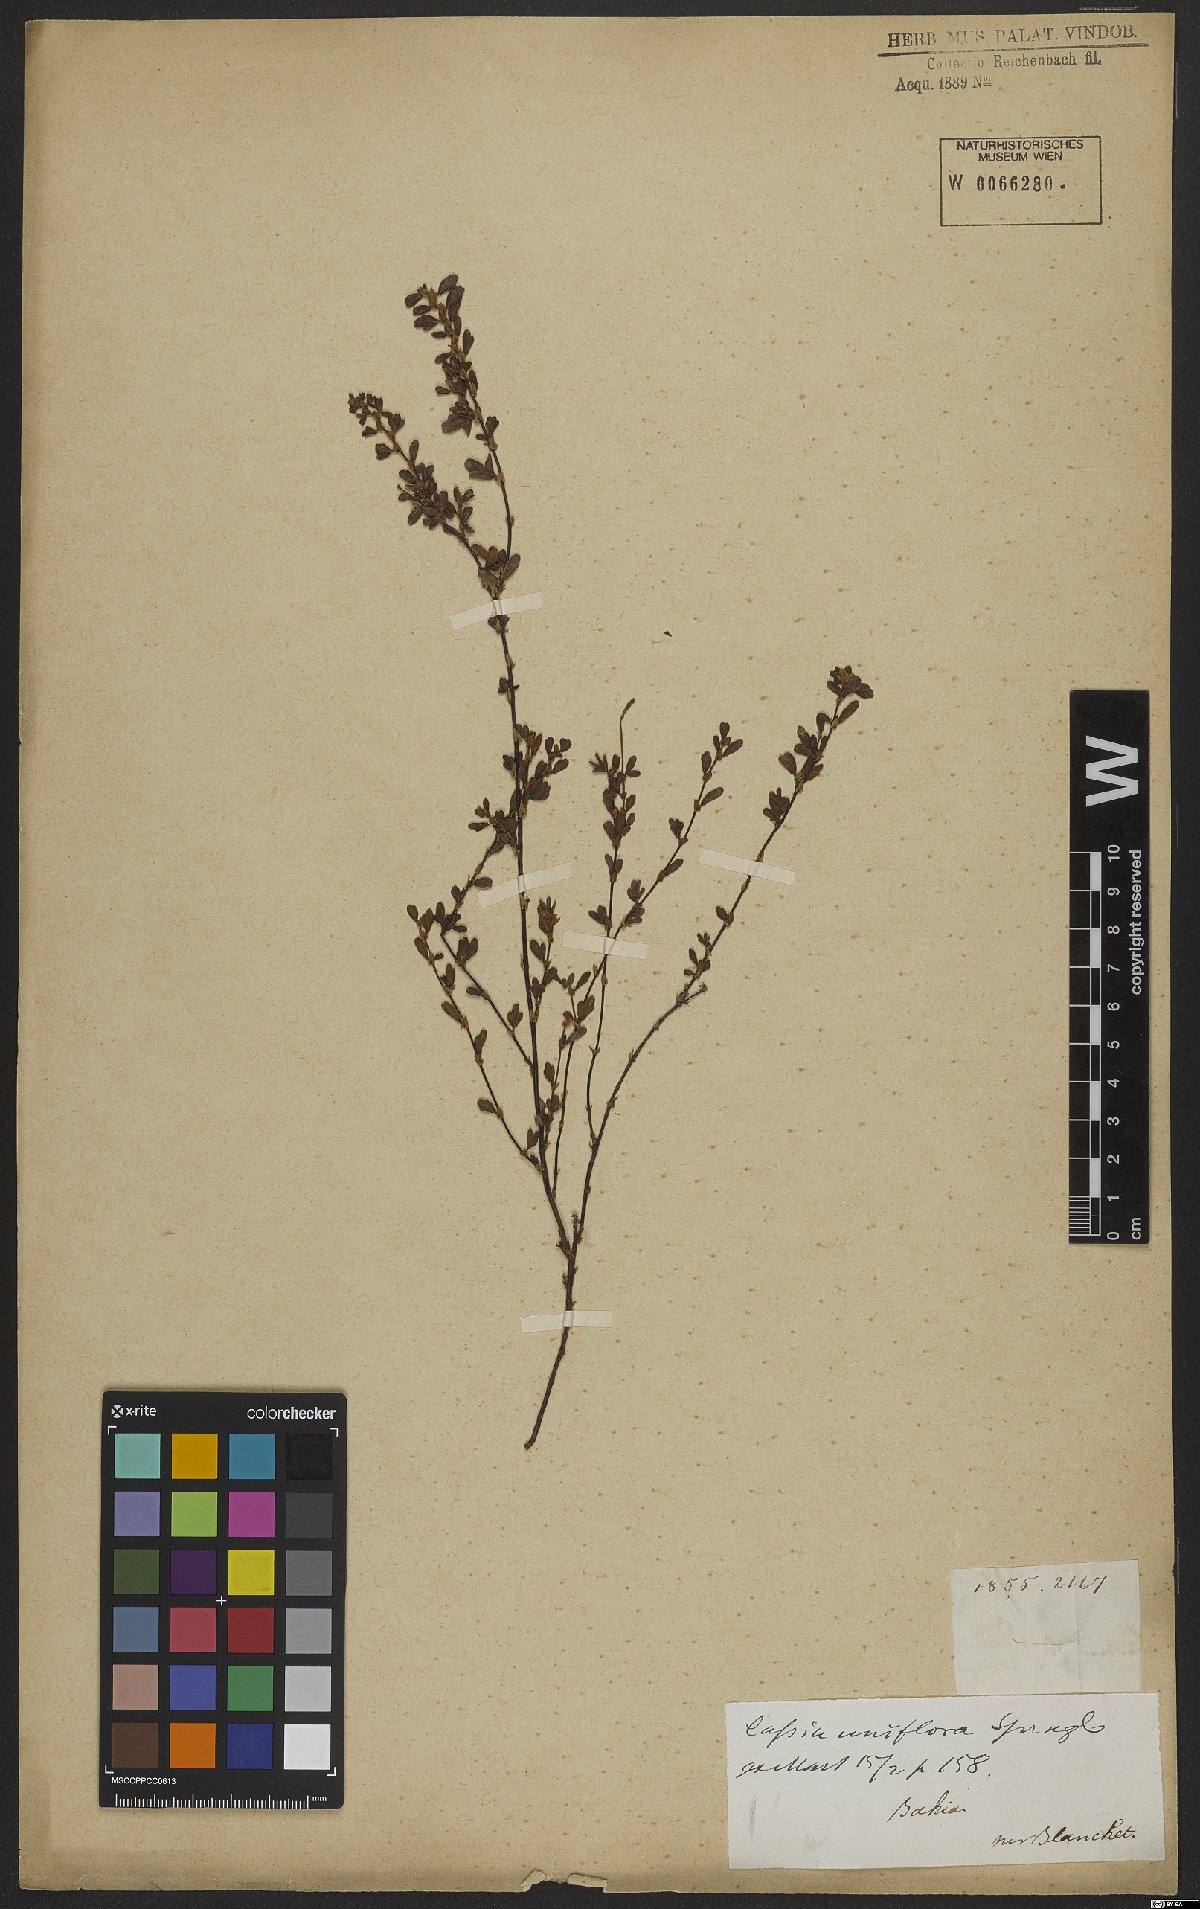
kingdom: Plantae
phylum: Tracheophyta
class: Magnoliopsida
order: Fabales
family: Fabaceae
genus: Senna
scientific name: Senna uniflora
